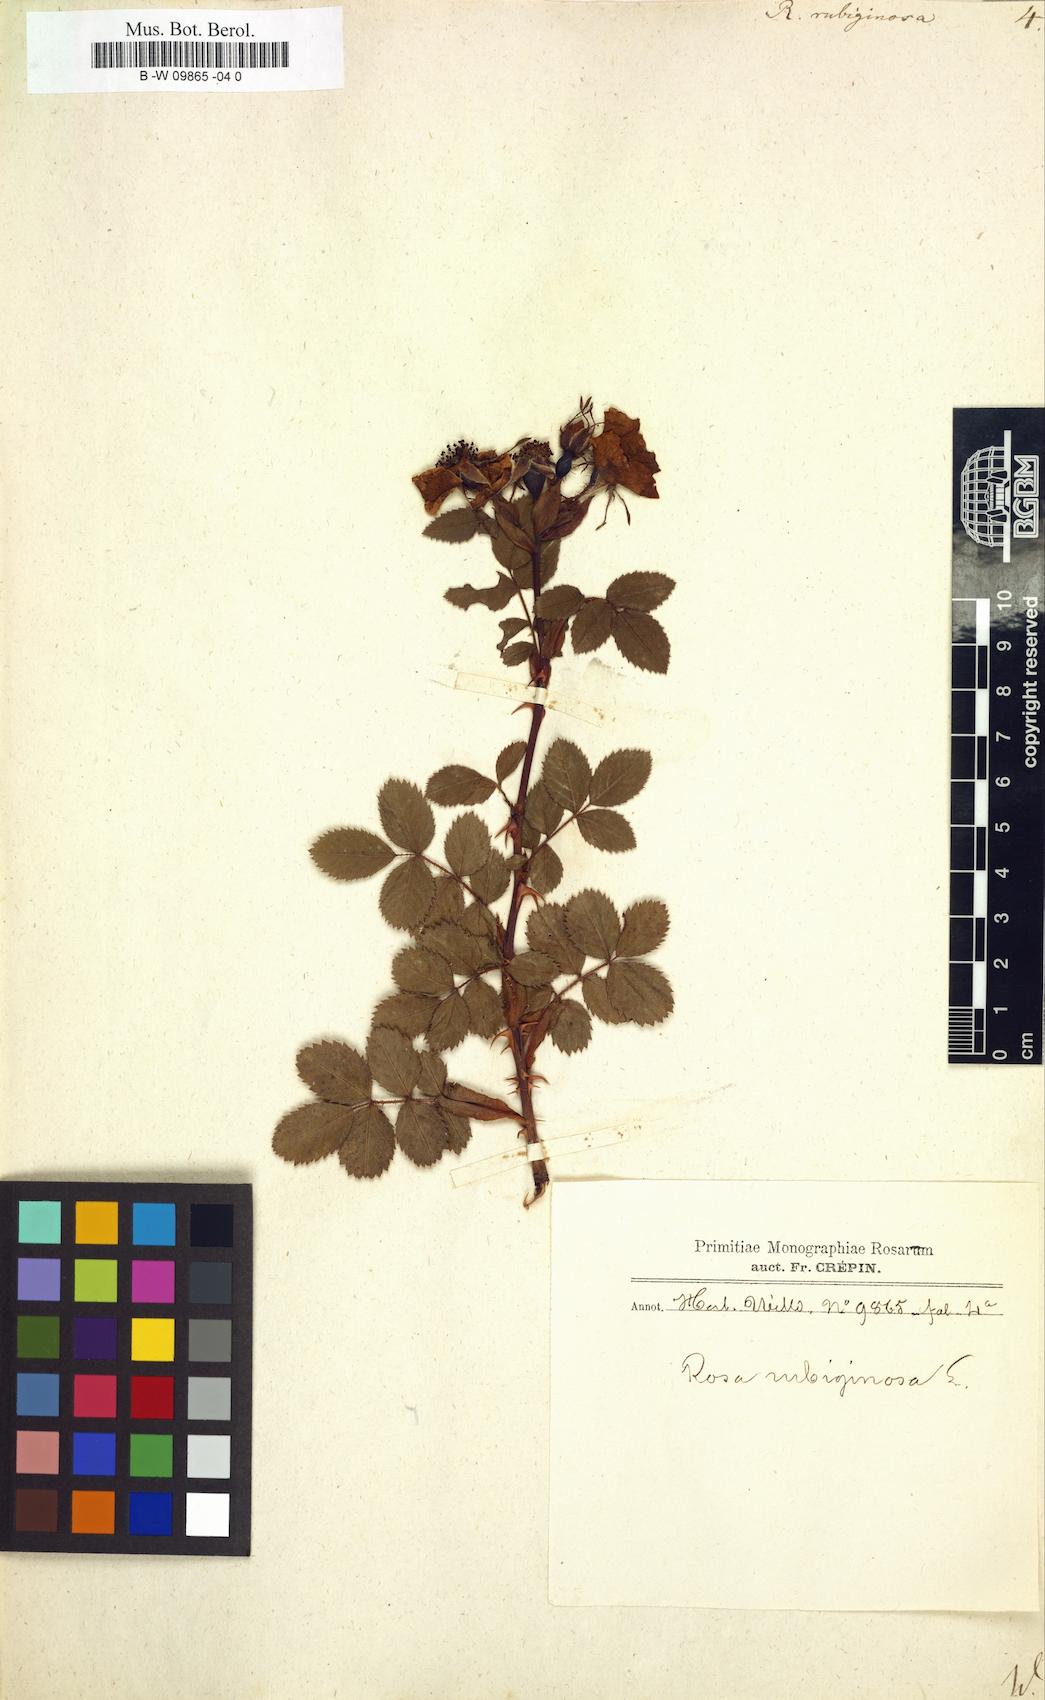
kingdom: Plantae
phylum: Tracheophyta
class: Magnoliopsida
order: Rosales
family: Rosaceae
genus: Rosa
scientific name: Rosa rubiginosa
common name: Sweet-briar
